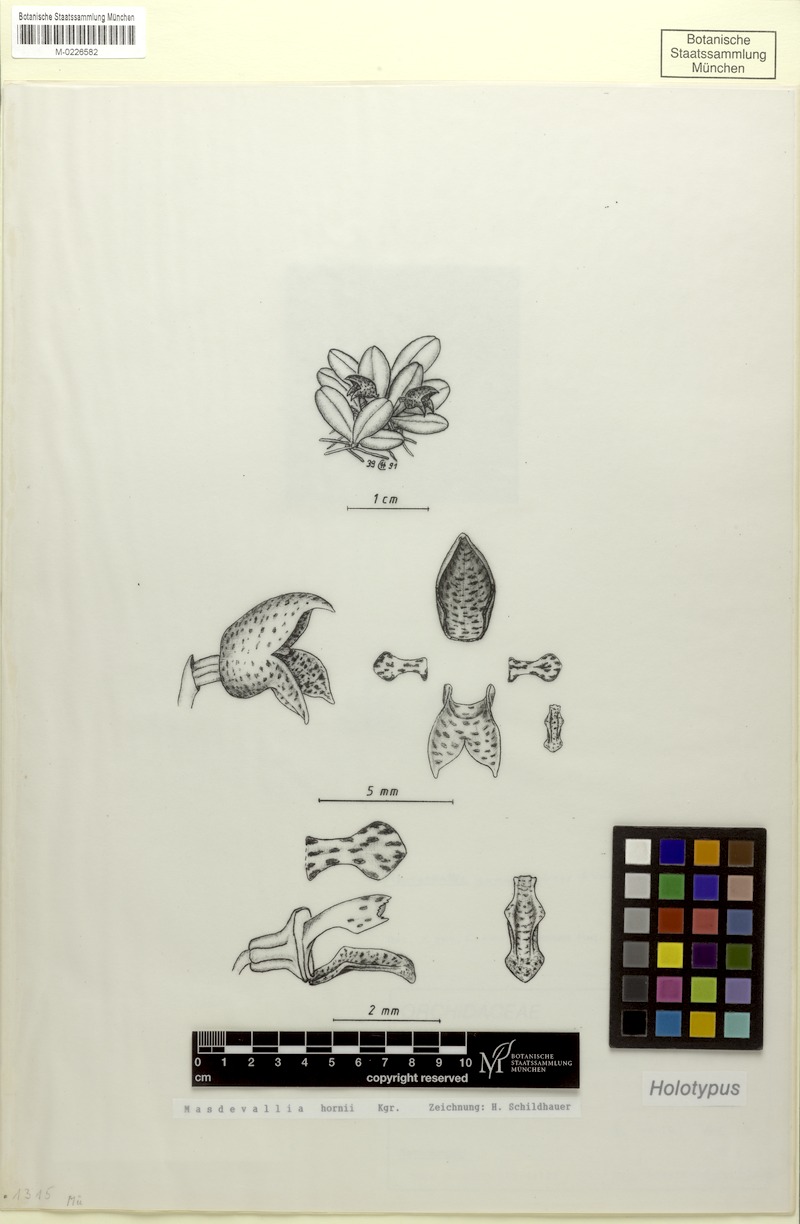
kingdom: Plantae
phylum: Tracheophyta
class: Liliopsida
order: Asparagales
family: Orchidaceae
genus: Dryadella
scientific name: Dryadella yupanki
